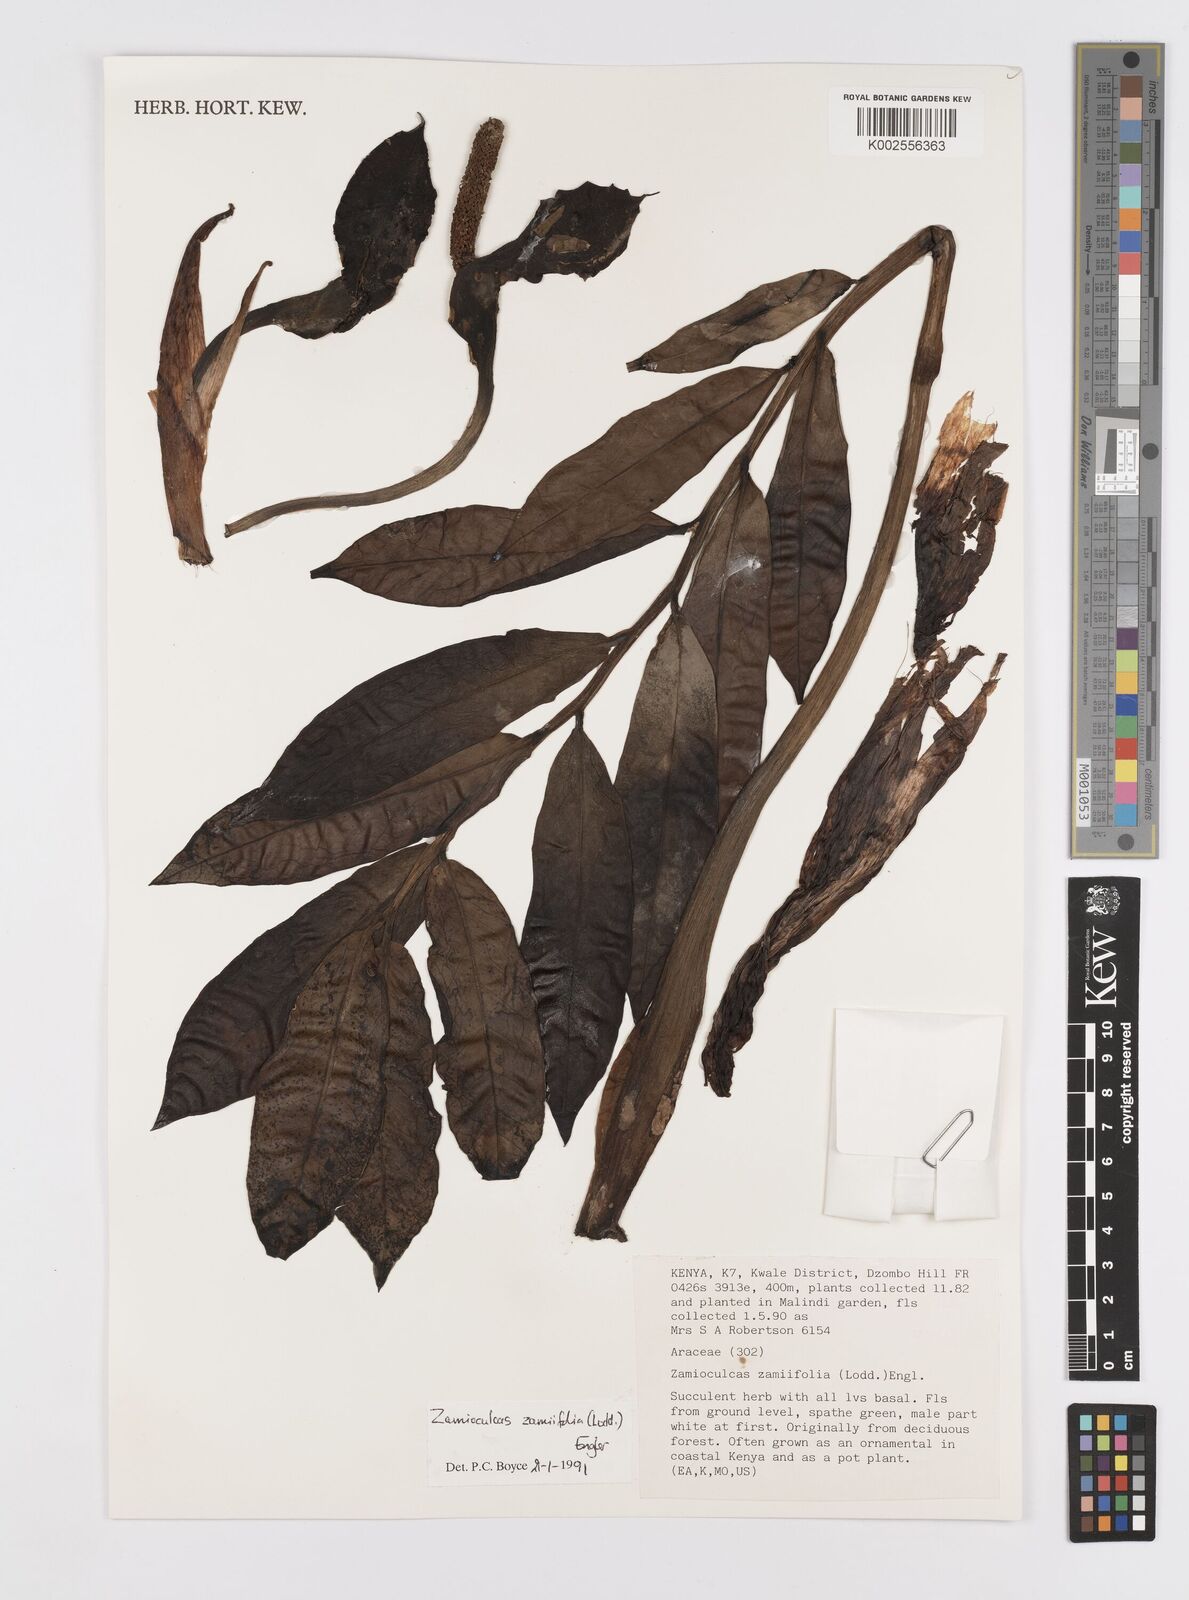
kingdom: Plantae
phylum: Tracheophyta
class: Liliopsida
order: Alismatales
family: Araceae
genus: Zamioculcas
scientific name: Zamioculcas zamiifolia
